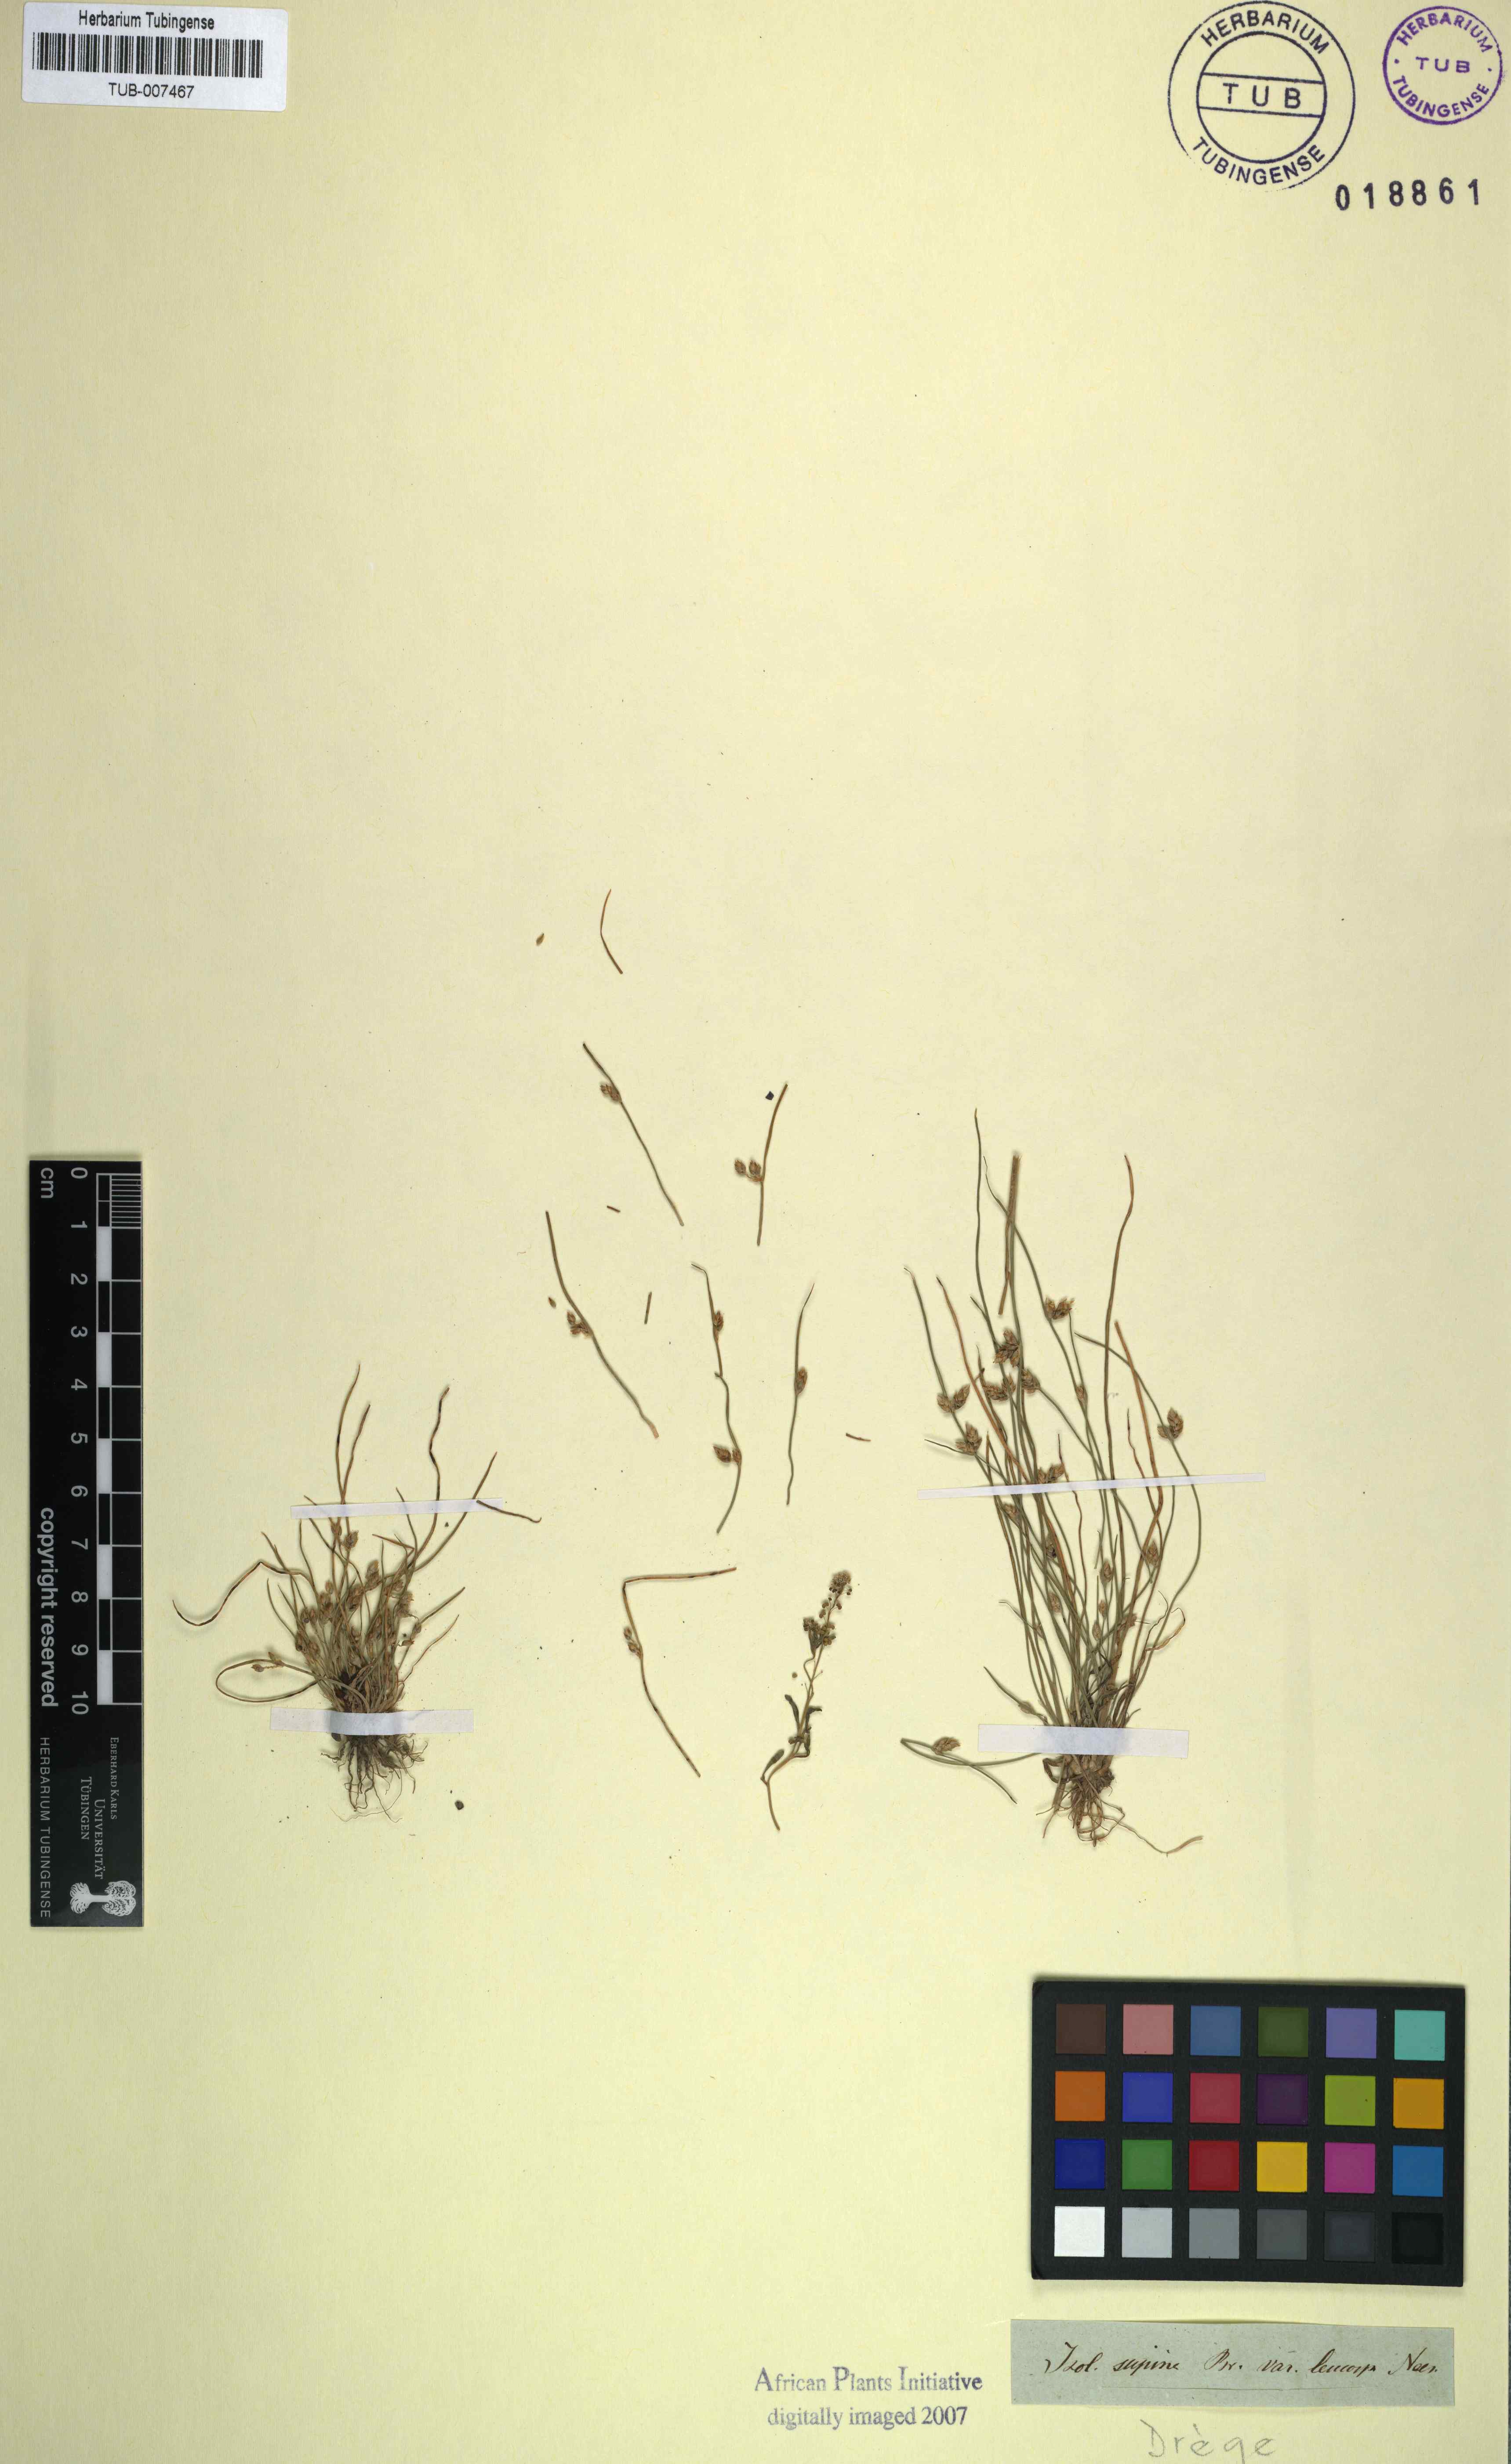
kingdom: Plantae
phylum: Tracheophyta
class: Liliopsida
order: Poales
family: Cyperaceae
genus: Schoenoplectiella
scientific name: Schoenoplectiella supina
